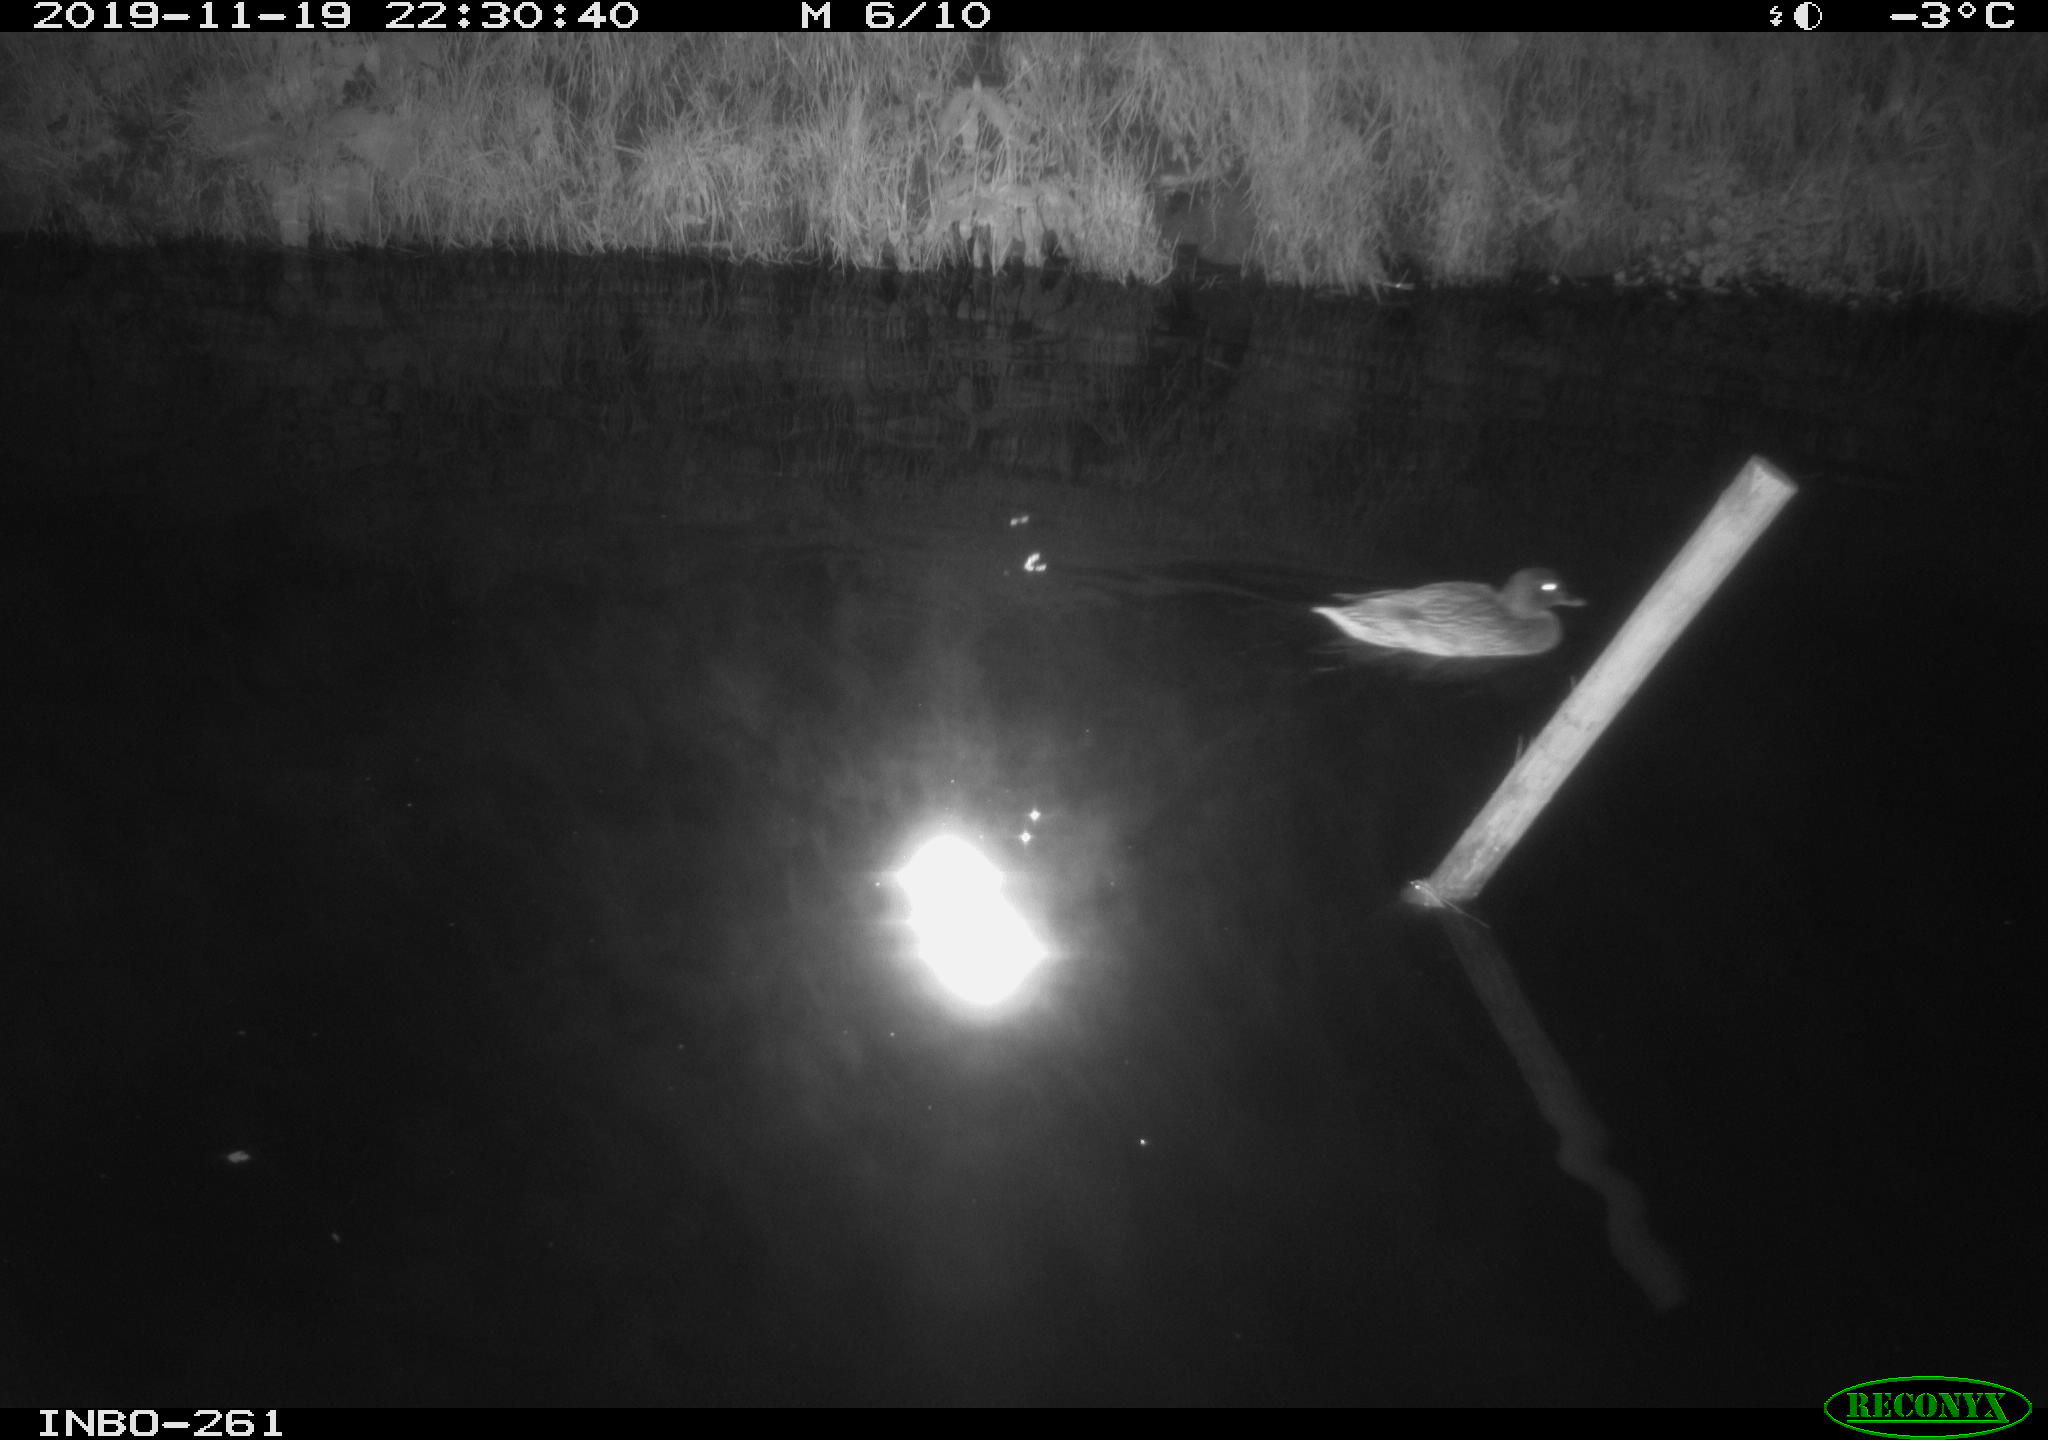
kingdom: Animalia
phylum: Chordata
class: Aves
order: Anseriformes
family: Anatidae
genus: Anas
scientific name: Anas platyrhynchos
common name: Mallard
